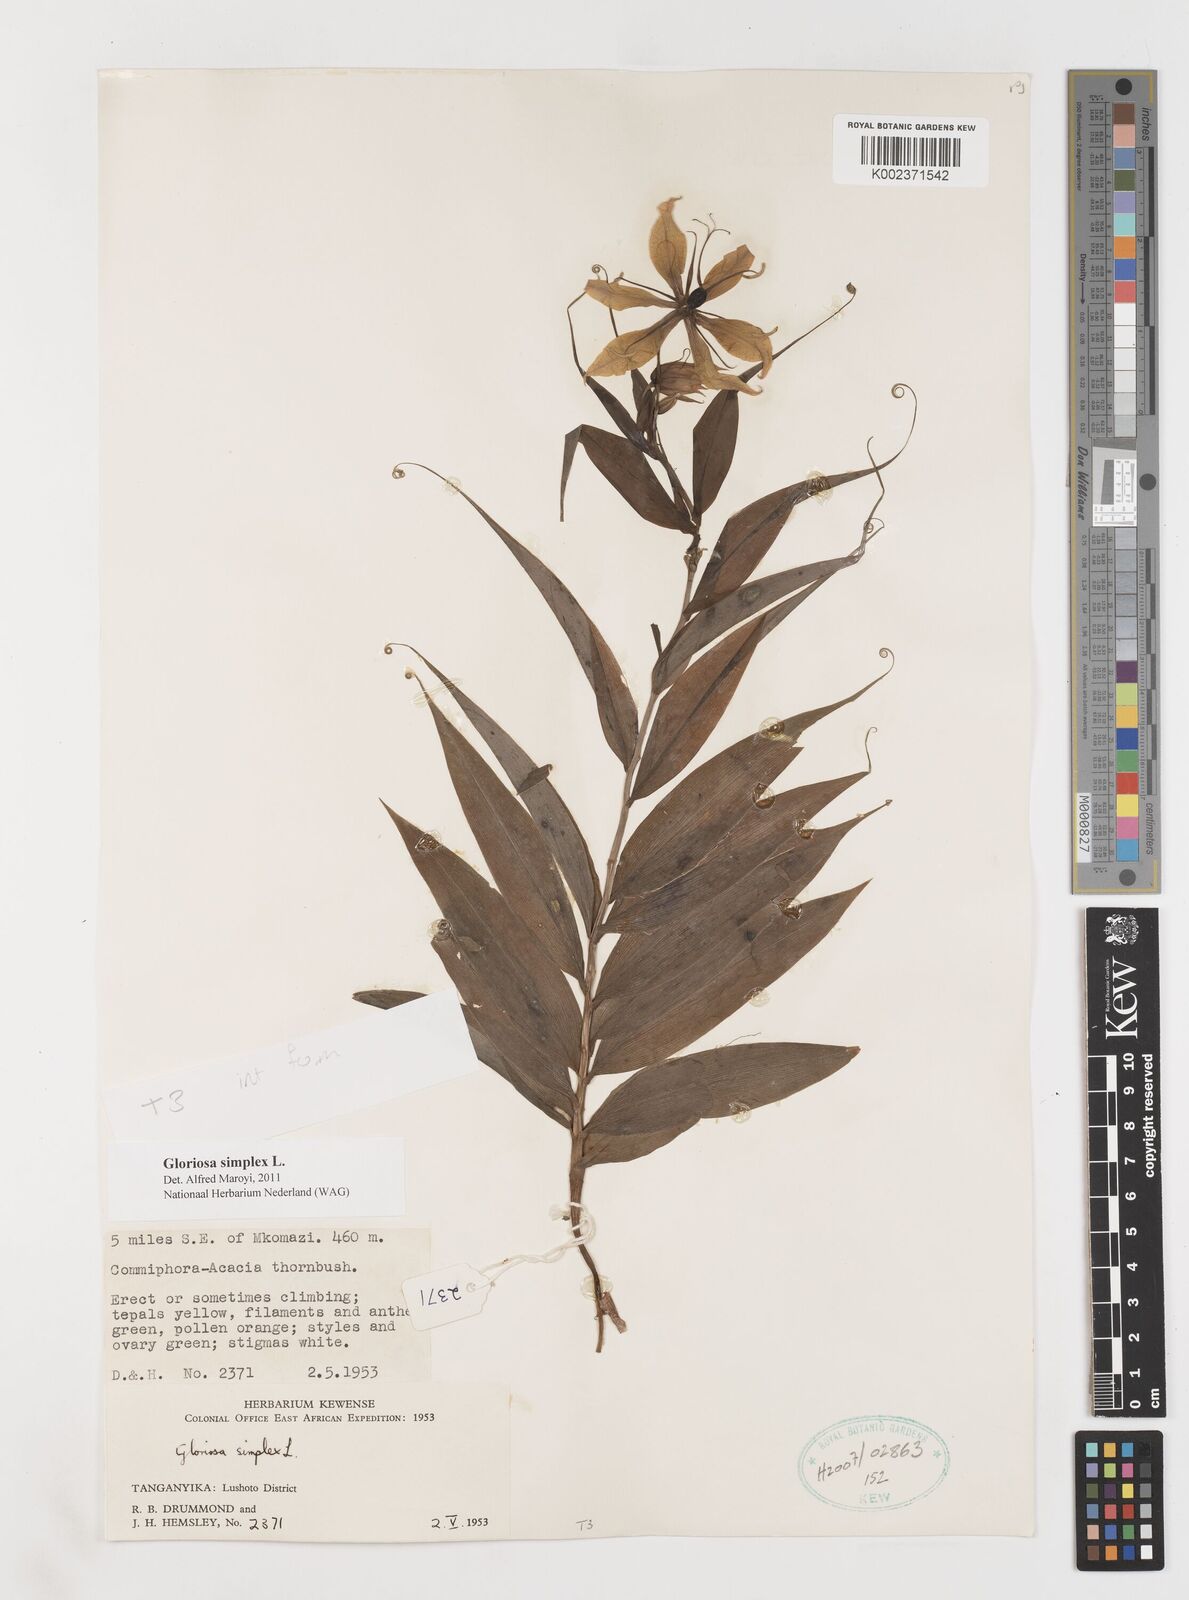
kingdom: Plantae
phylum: Tracheophyta
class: Liliopsida
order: Liliales
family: Colchicaceae
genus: Gloriosa
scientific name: Gloriosa simplex
